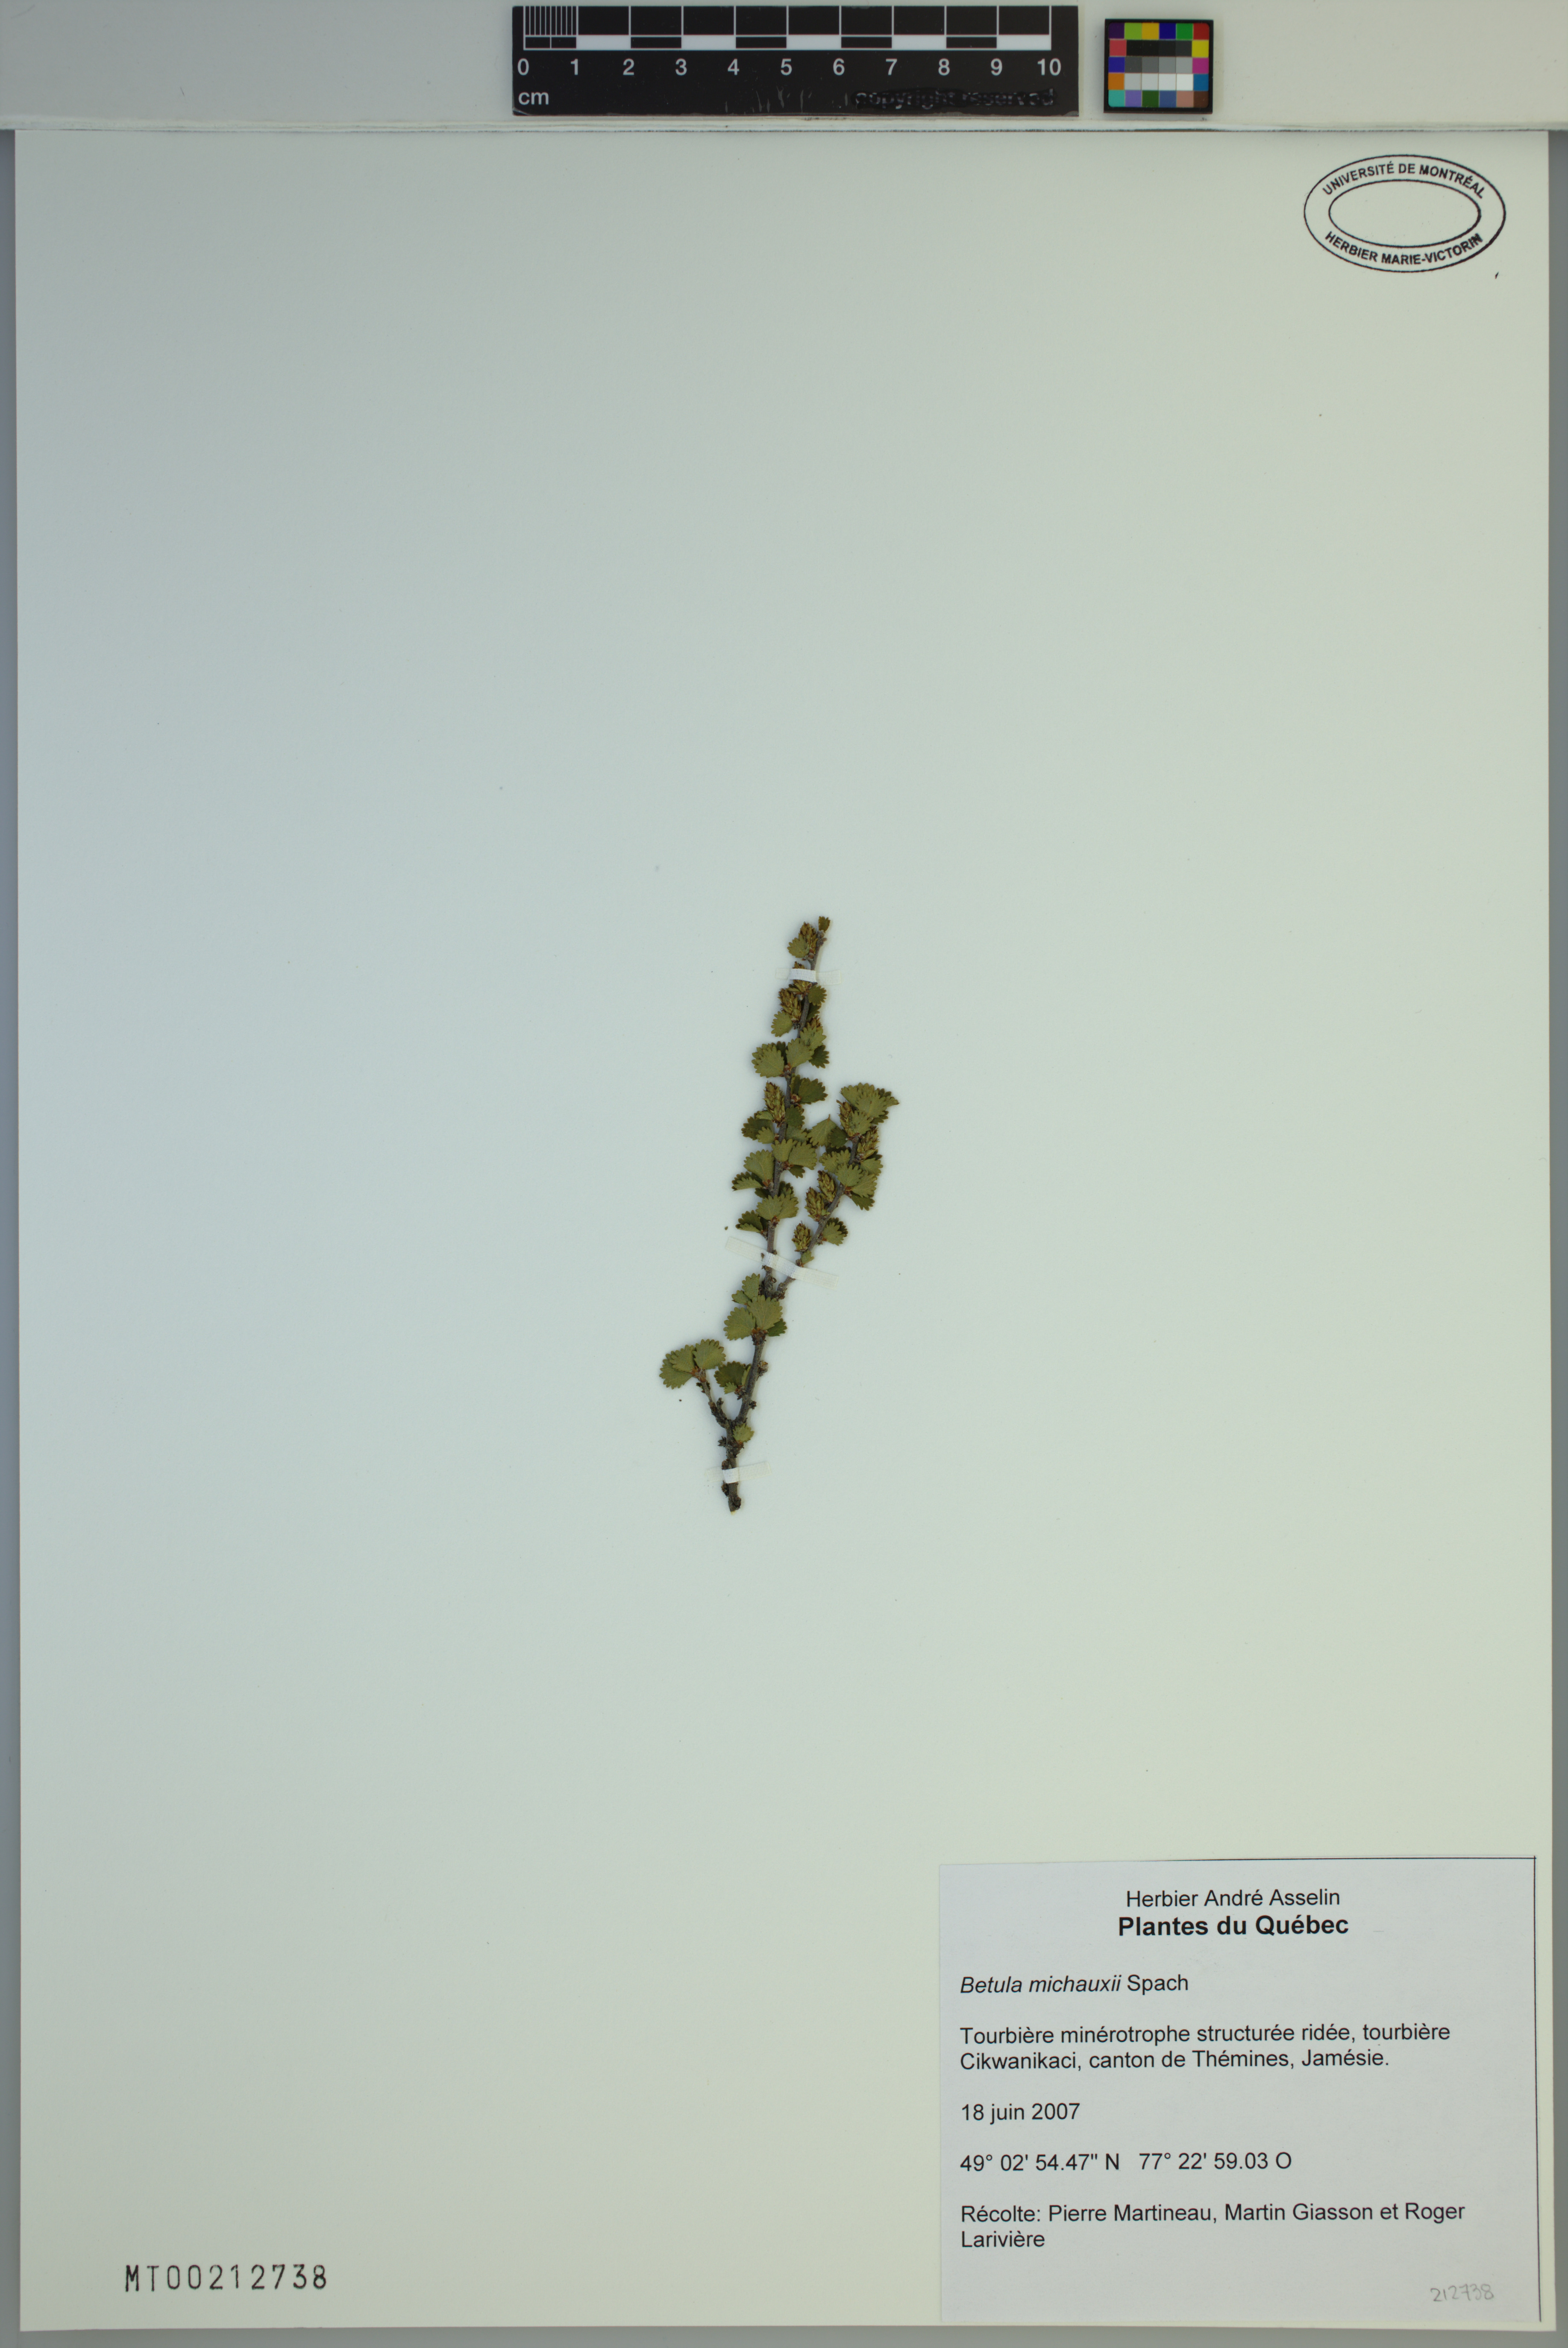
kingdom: Plantae
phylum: Tracheophyta
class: Magnoliopsida
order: Fagales
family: Betulaceae
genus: Betula
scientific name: Betula michauxii
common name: Newfoundland dwarf birch
